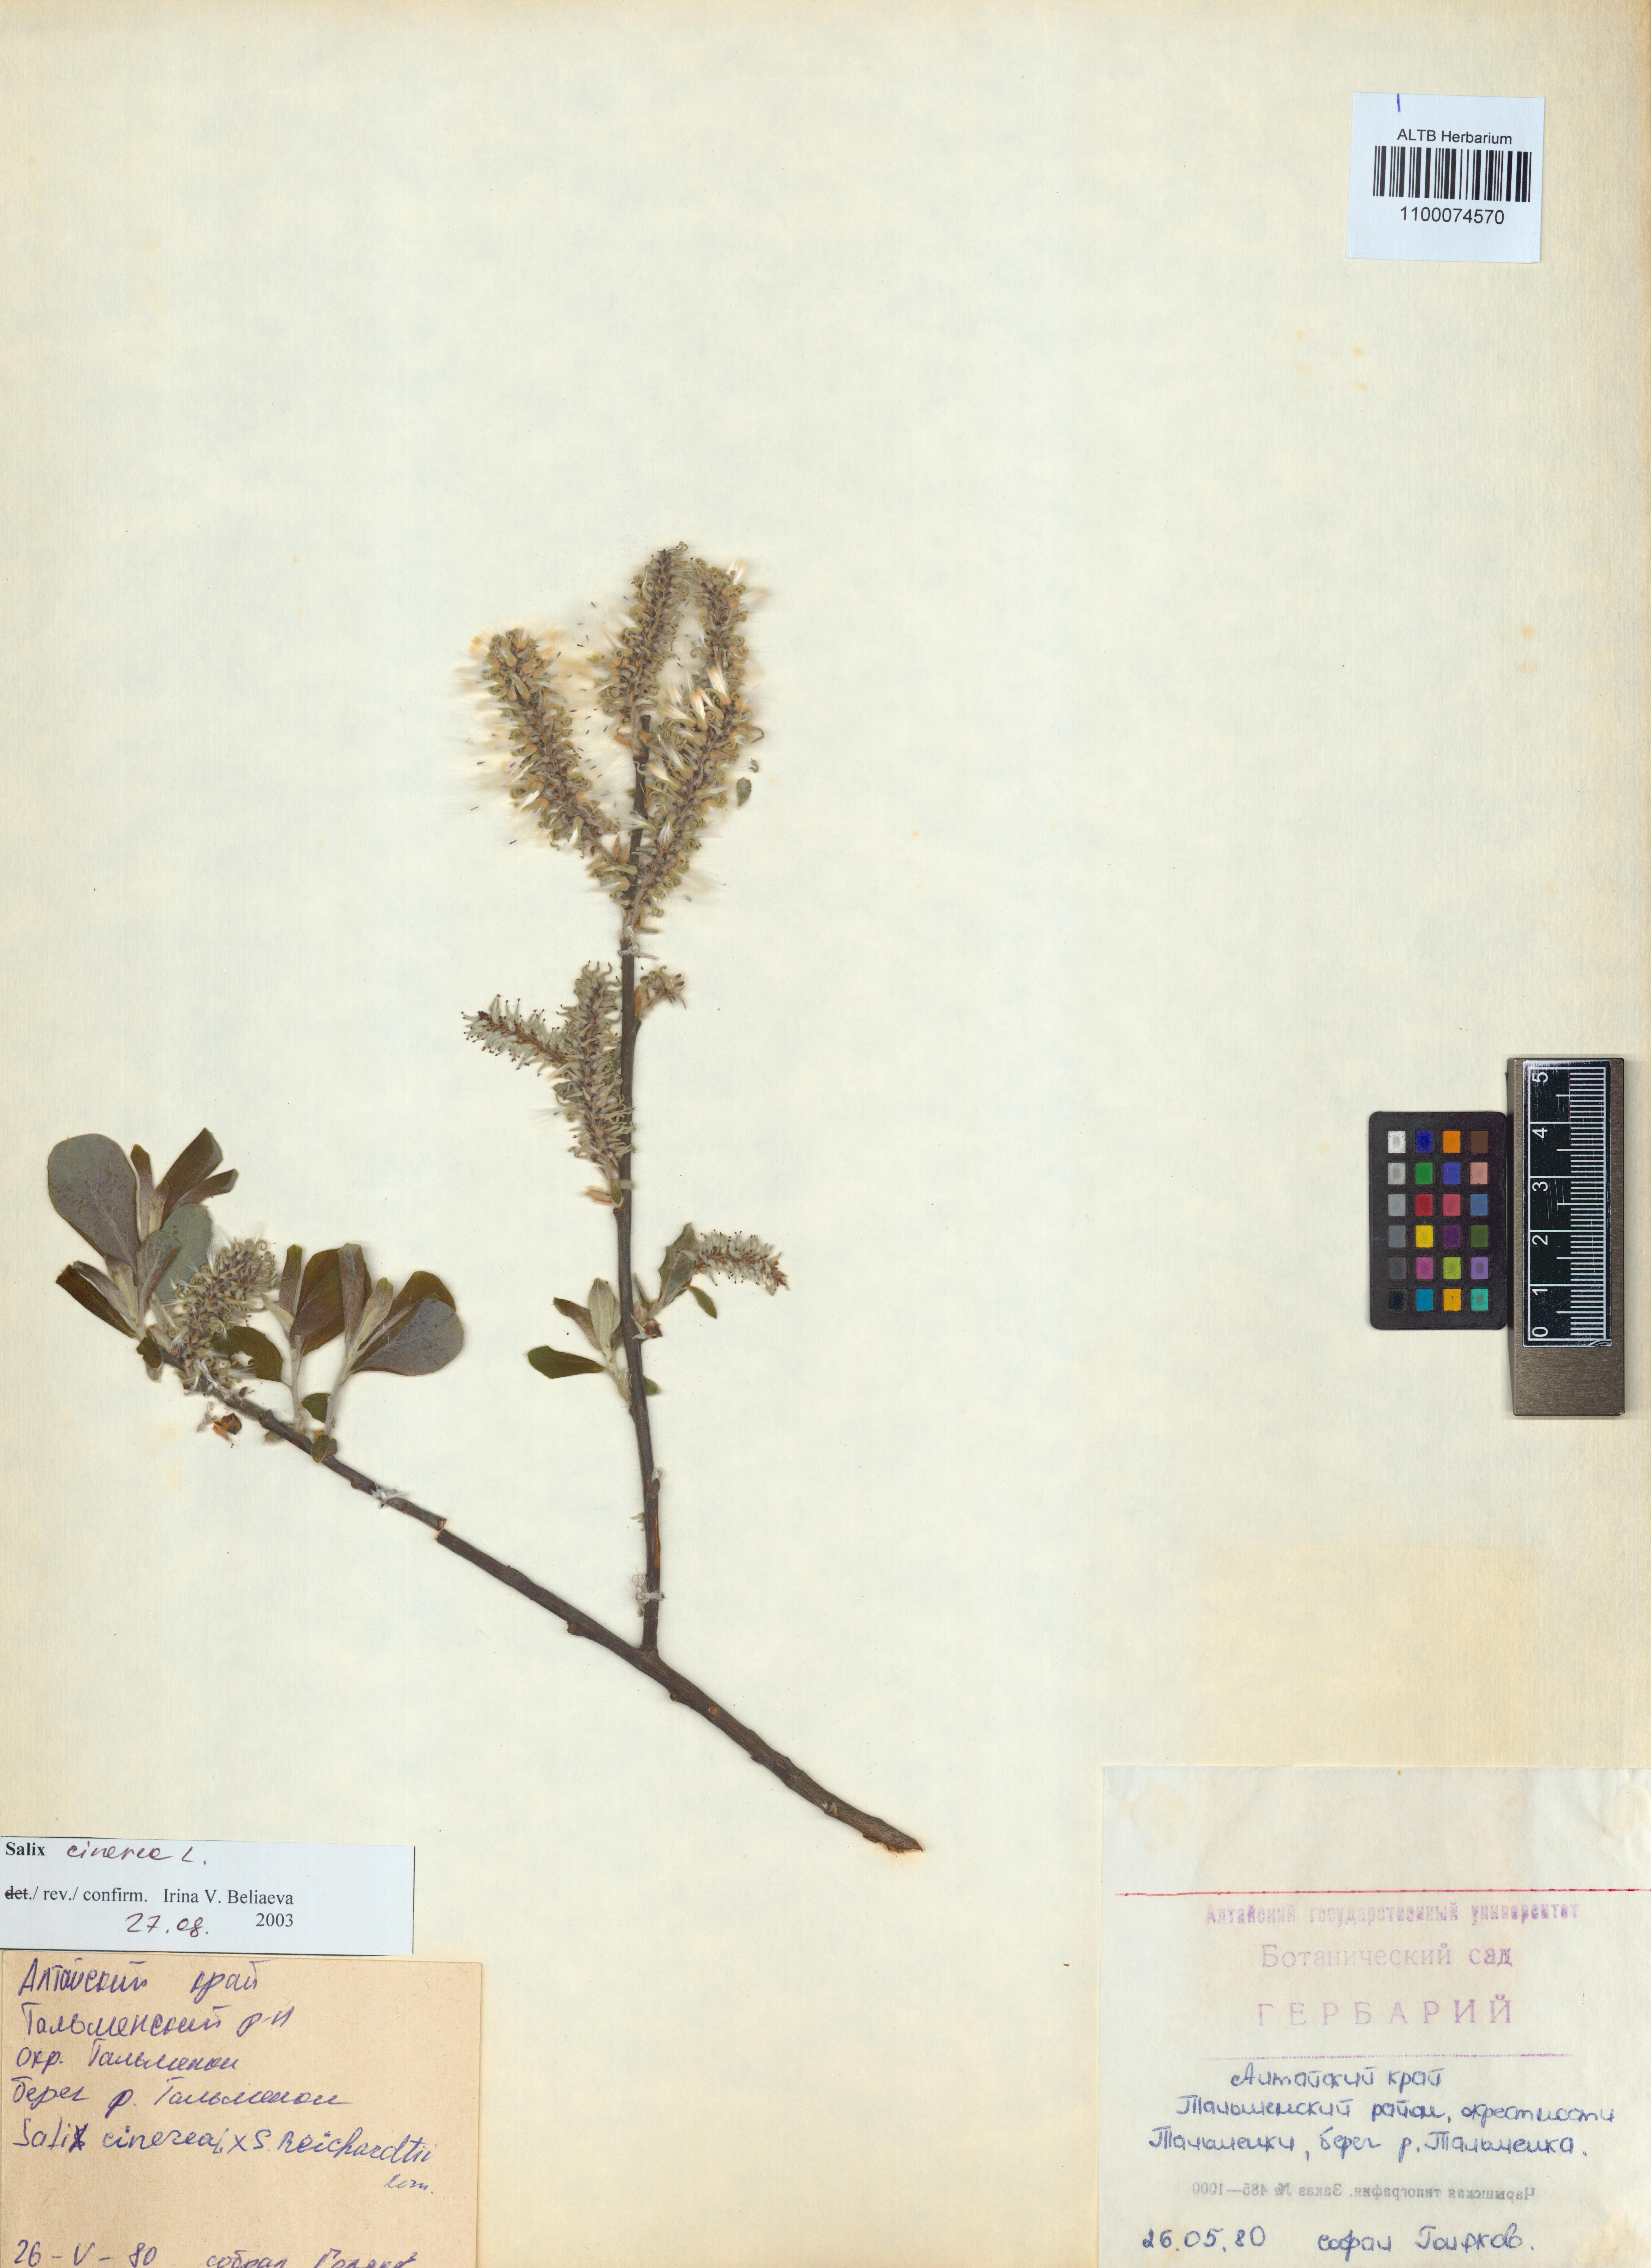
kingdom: Plantae
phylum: Tracheophyta
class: Magnoliopsida
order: Malpighiales
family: Salicaceae
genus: Salix
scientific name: Salix cinerea
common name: Common sallow
